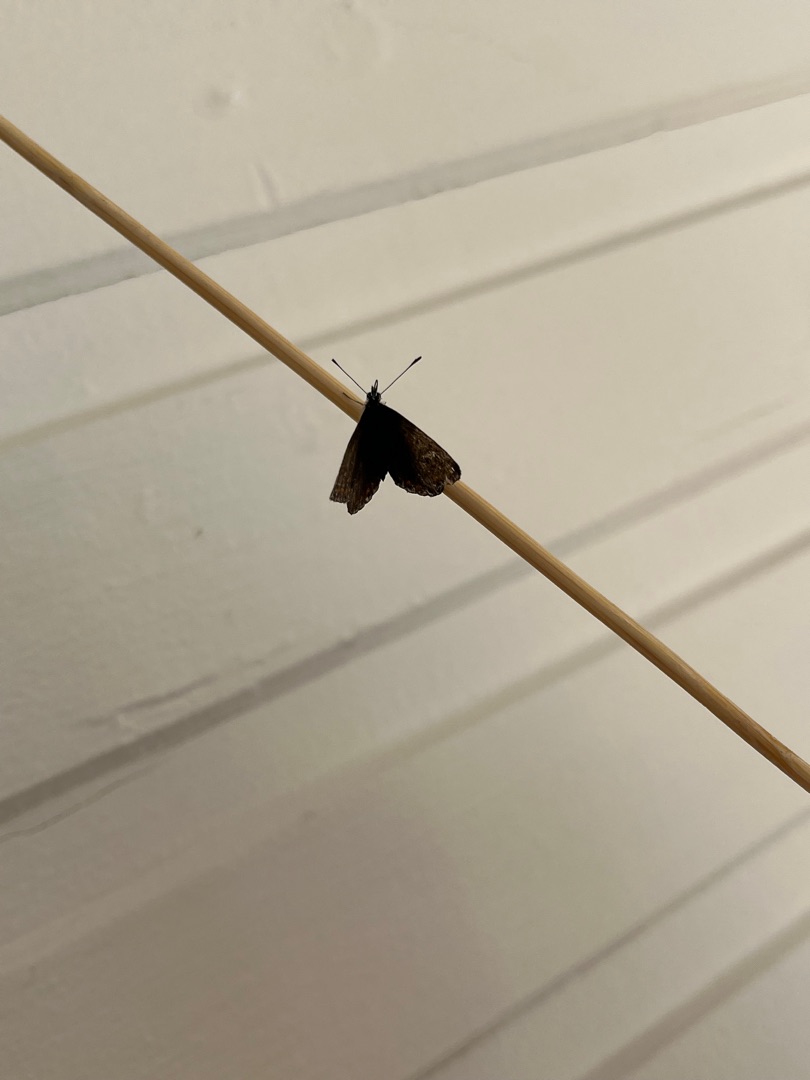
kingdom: Animalia
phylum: Arthropoda
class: Insecta
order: Lepidoptera
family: Lycaenidae
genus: Polyommatus
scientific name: Polyommatus icarus
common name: Almindelig blåfugl
